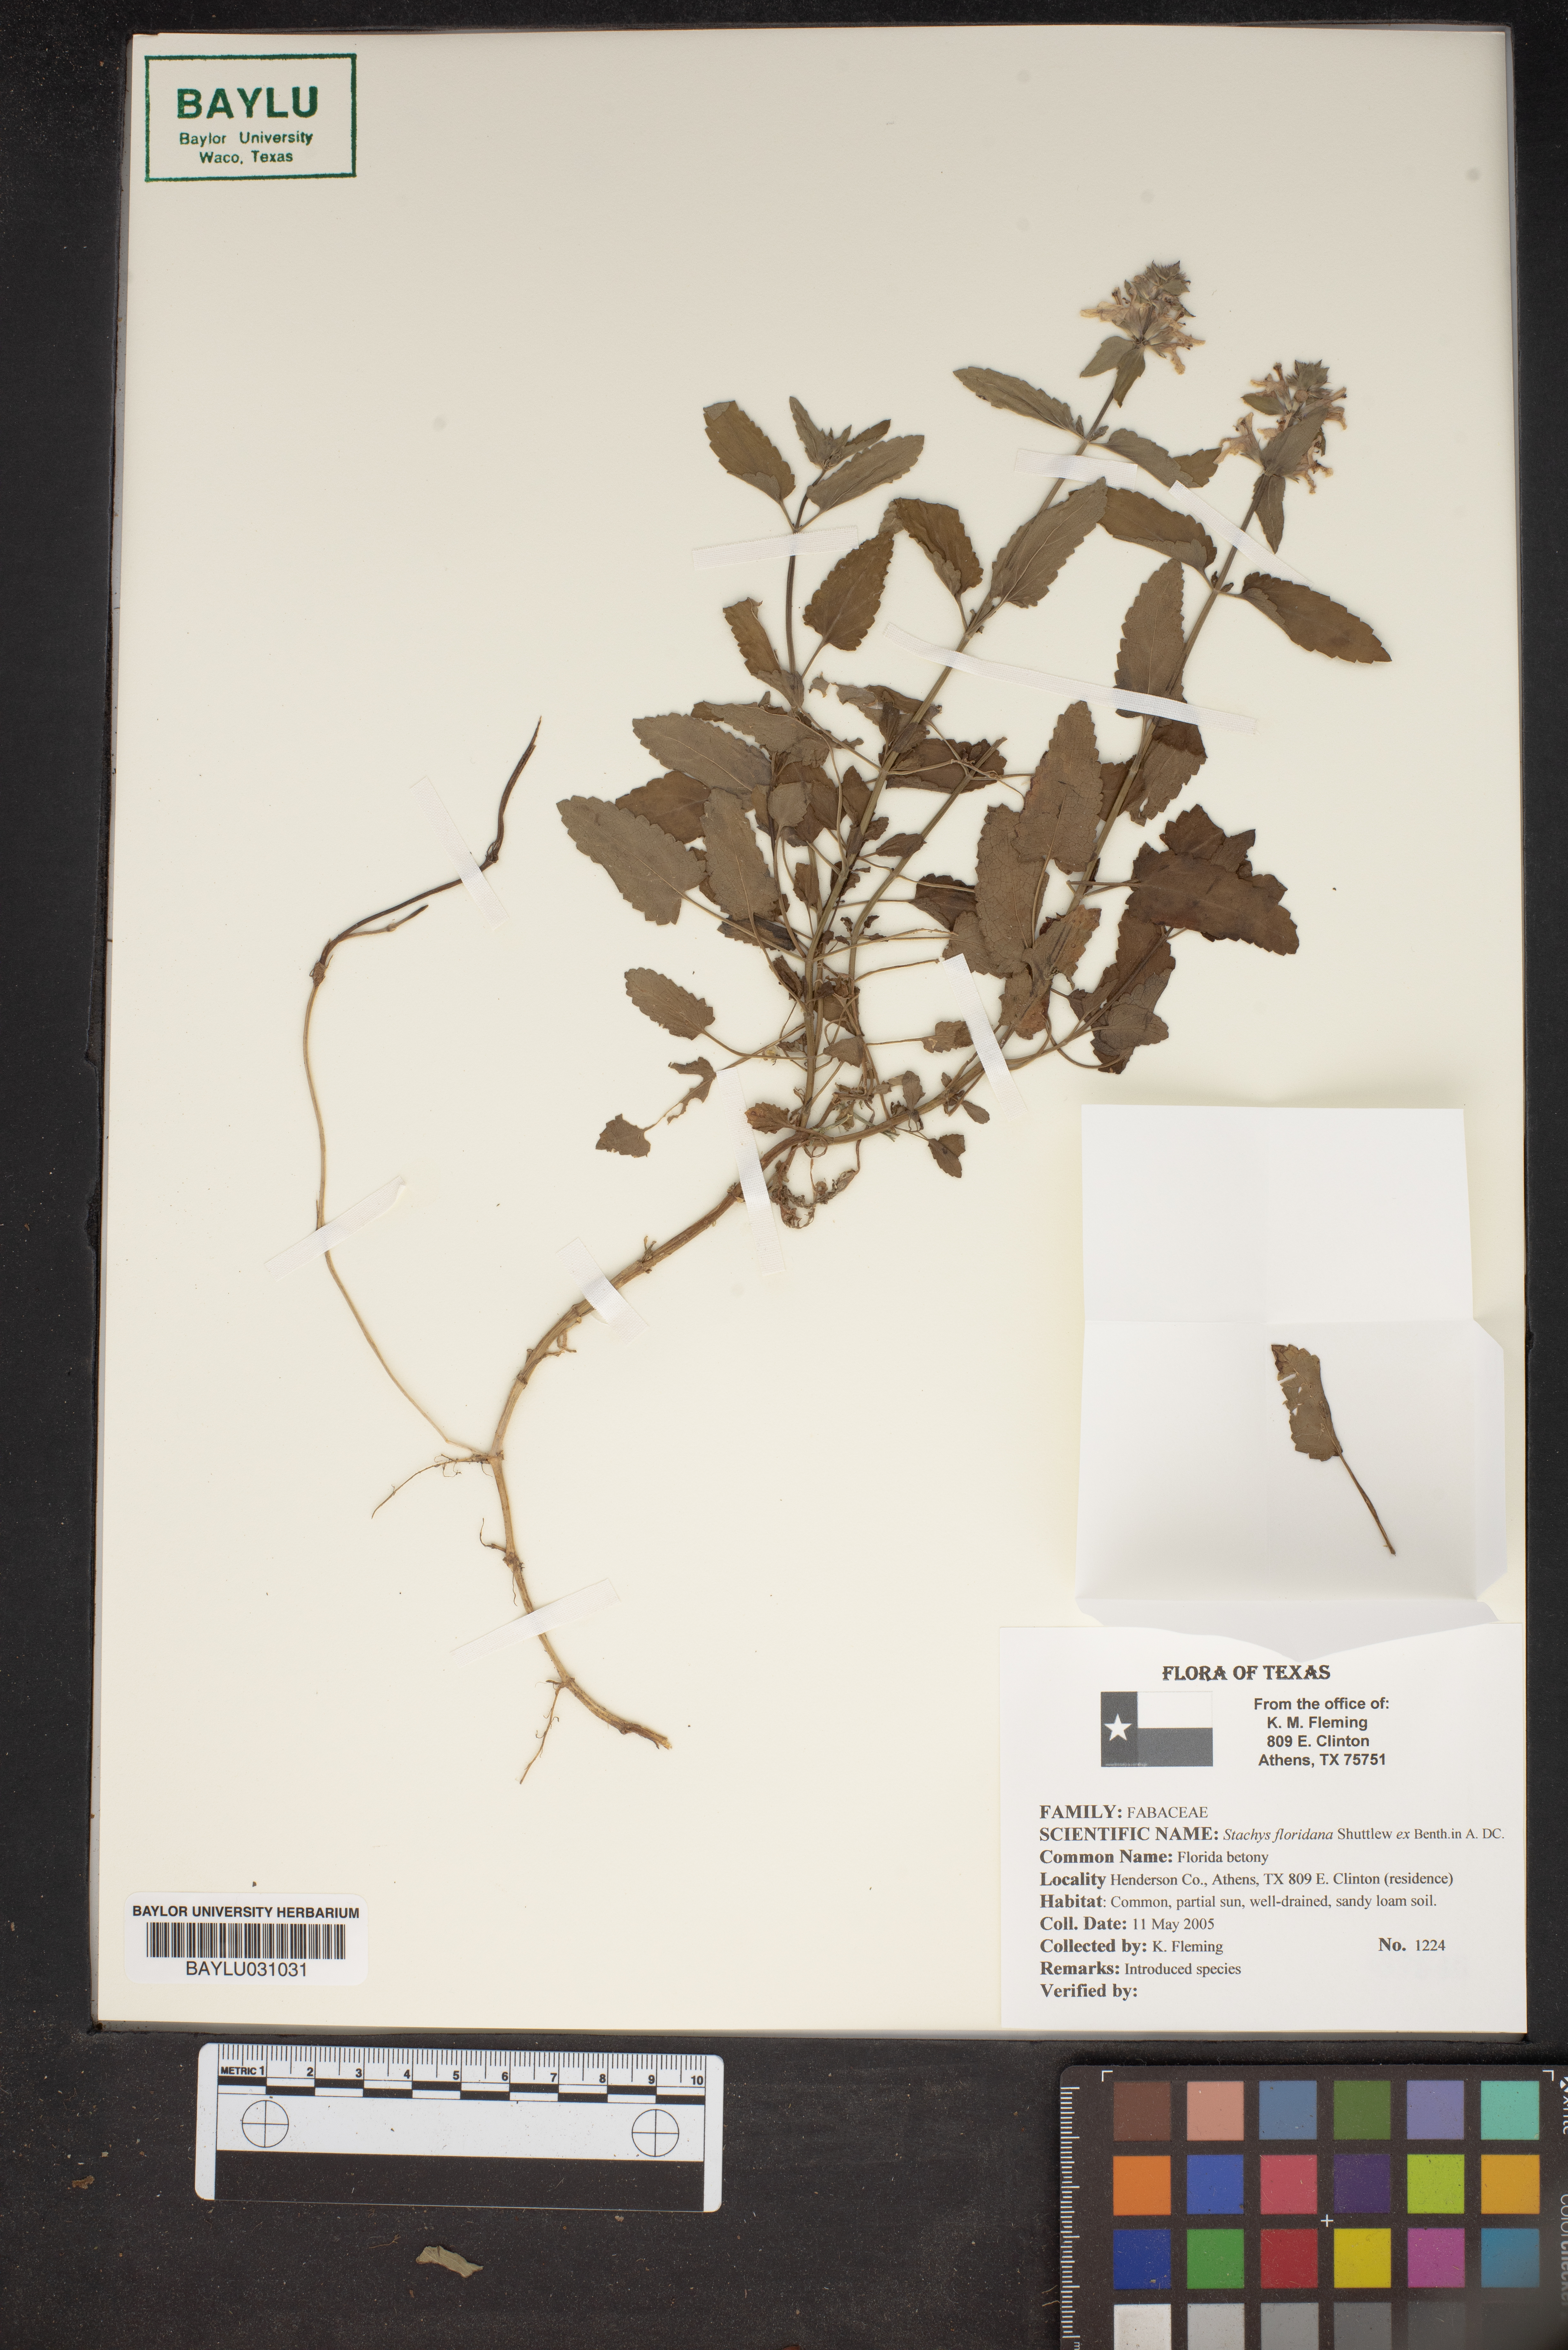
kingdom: Plantae
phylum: Tracheophyta
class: Magnoliopsida
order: Lamiales
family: Lamiaceae
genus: Stachys
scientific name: Stachys floridana
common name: Florida betony
